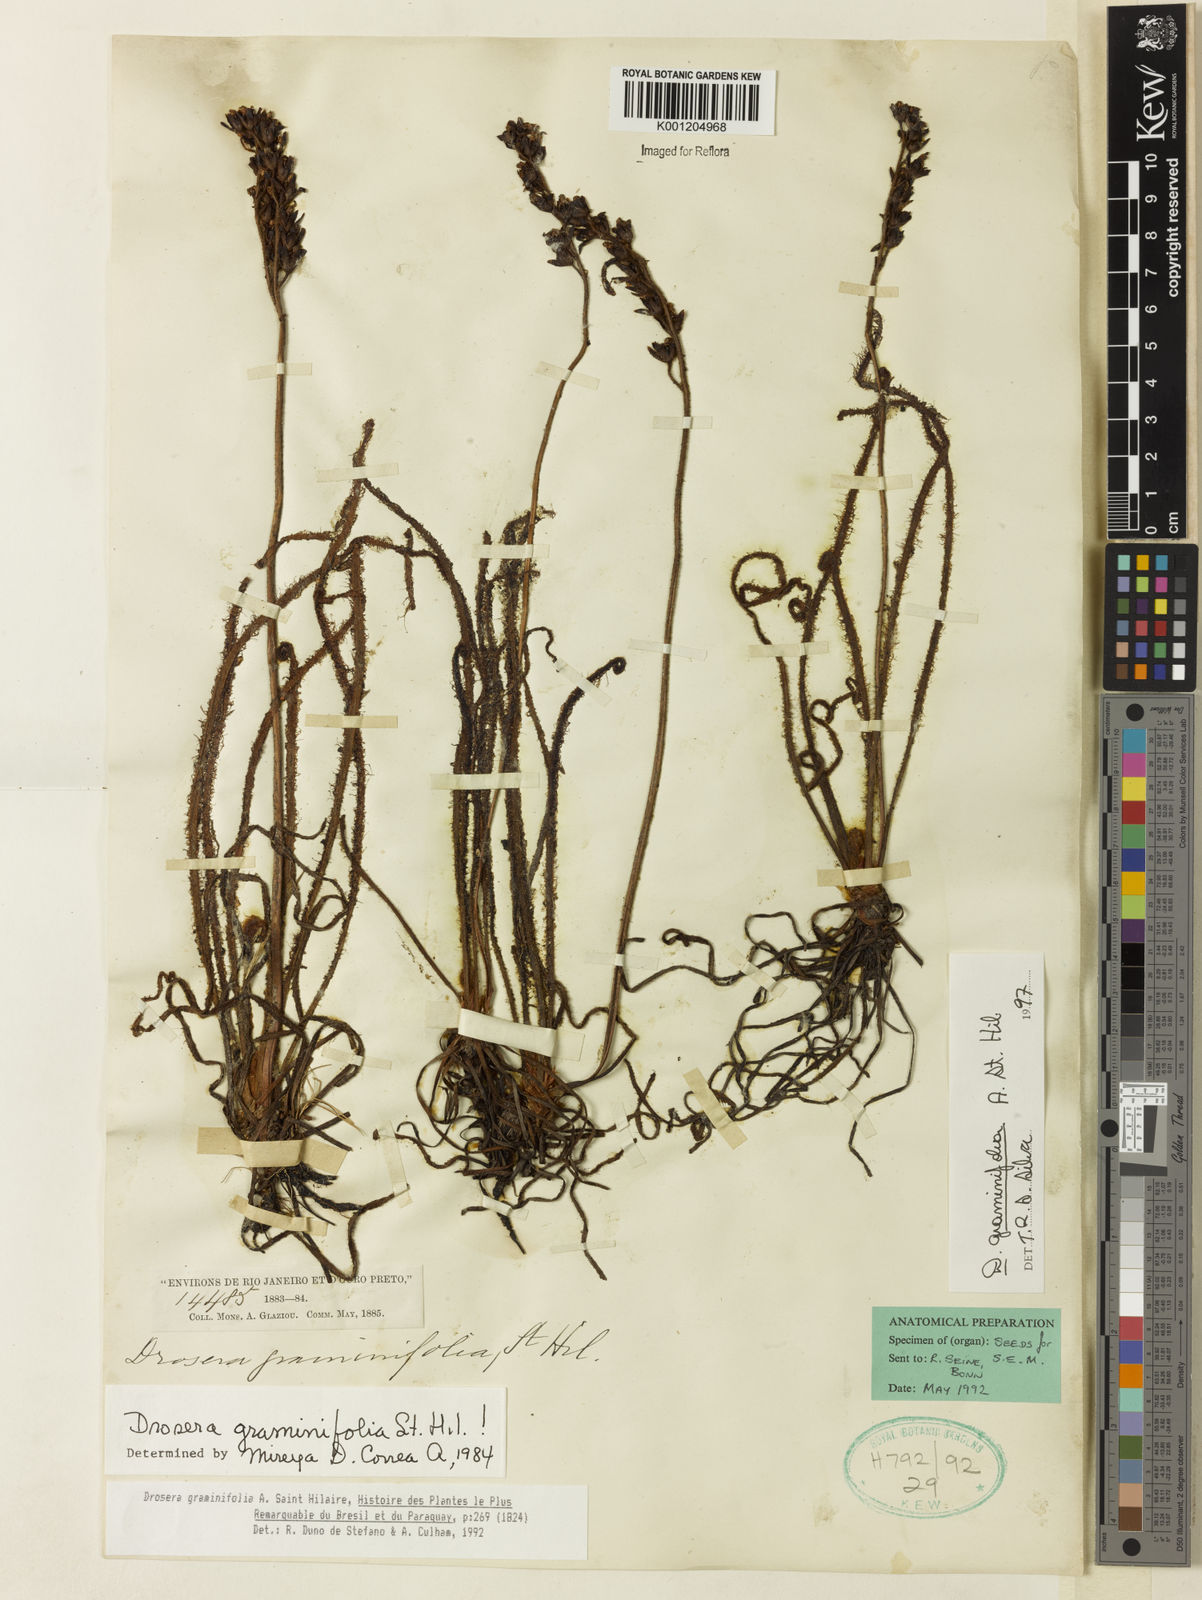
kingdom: Plantae
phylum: Tracheophyta
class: Magnoliopsida
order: Caryophyllales
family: Droseraceae
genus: Drosera
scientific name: Drosera graminifolia
